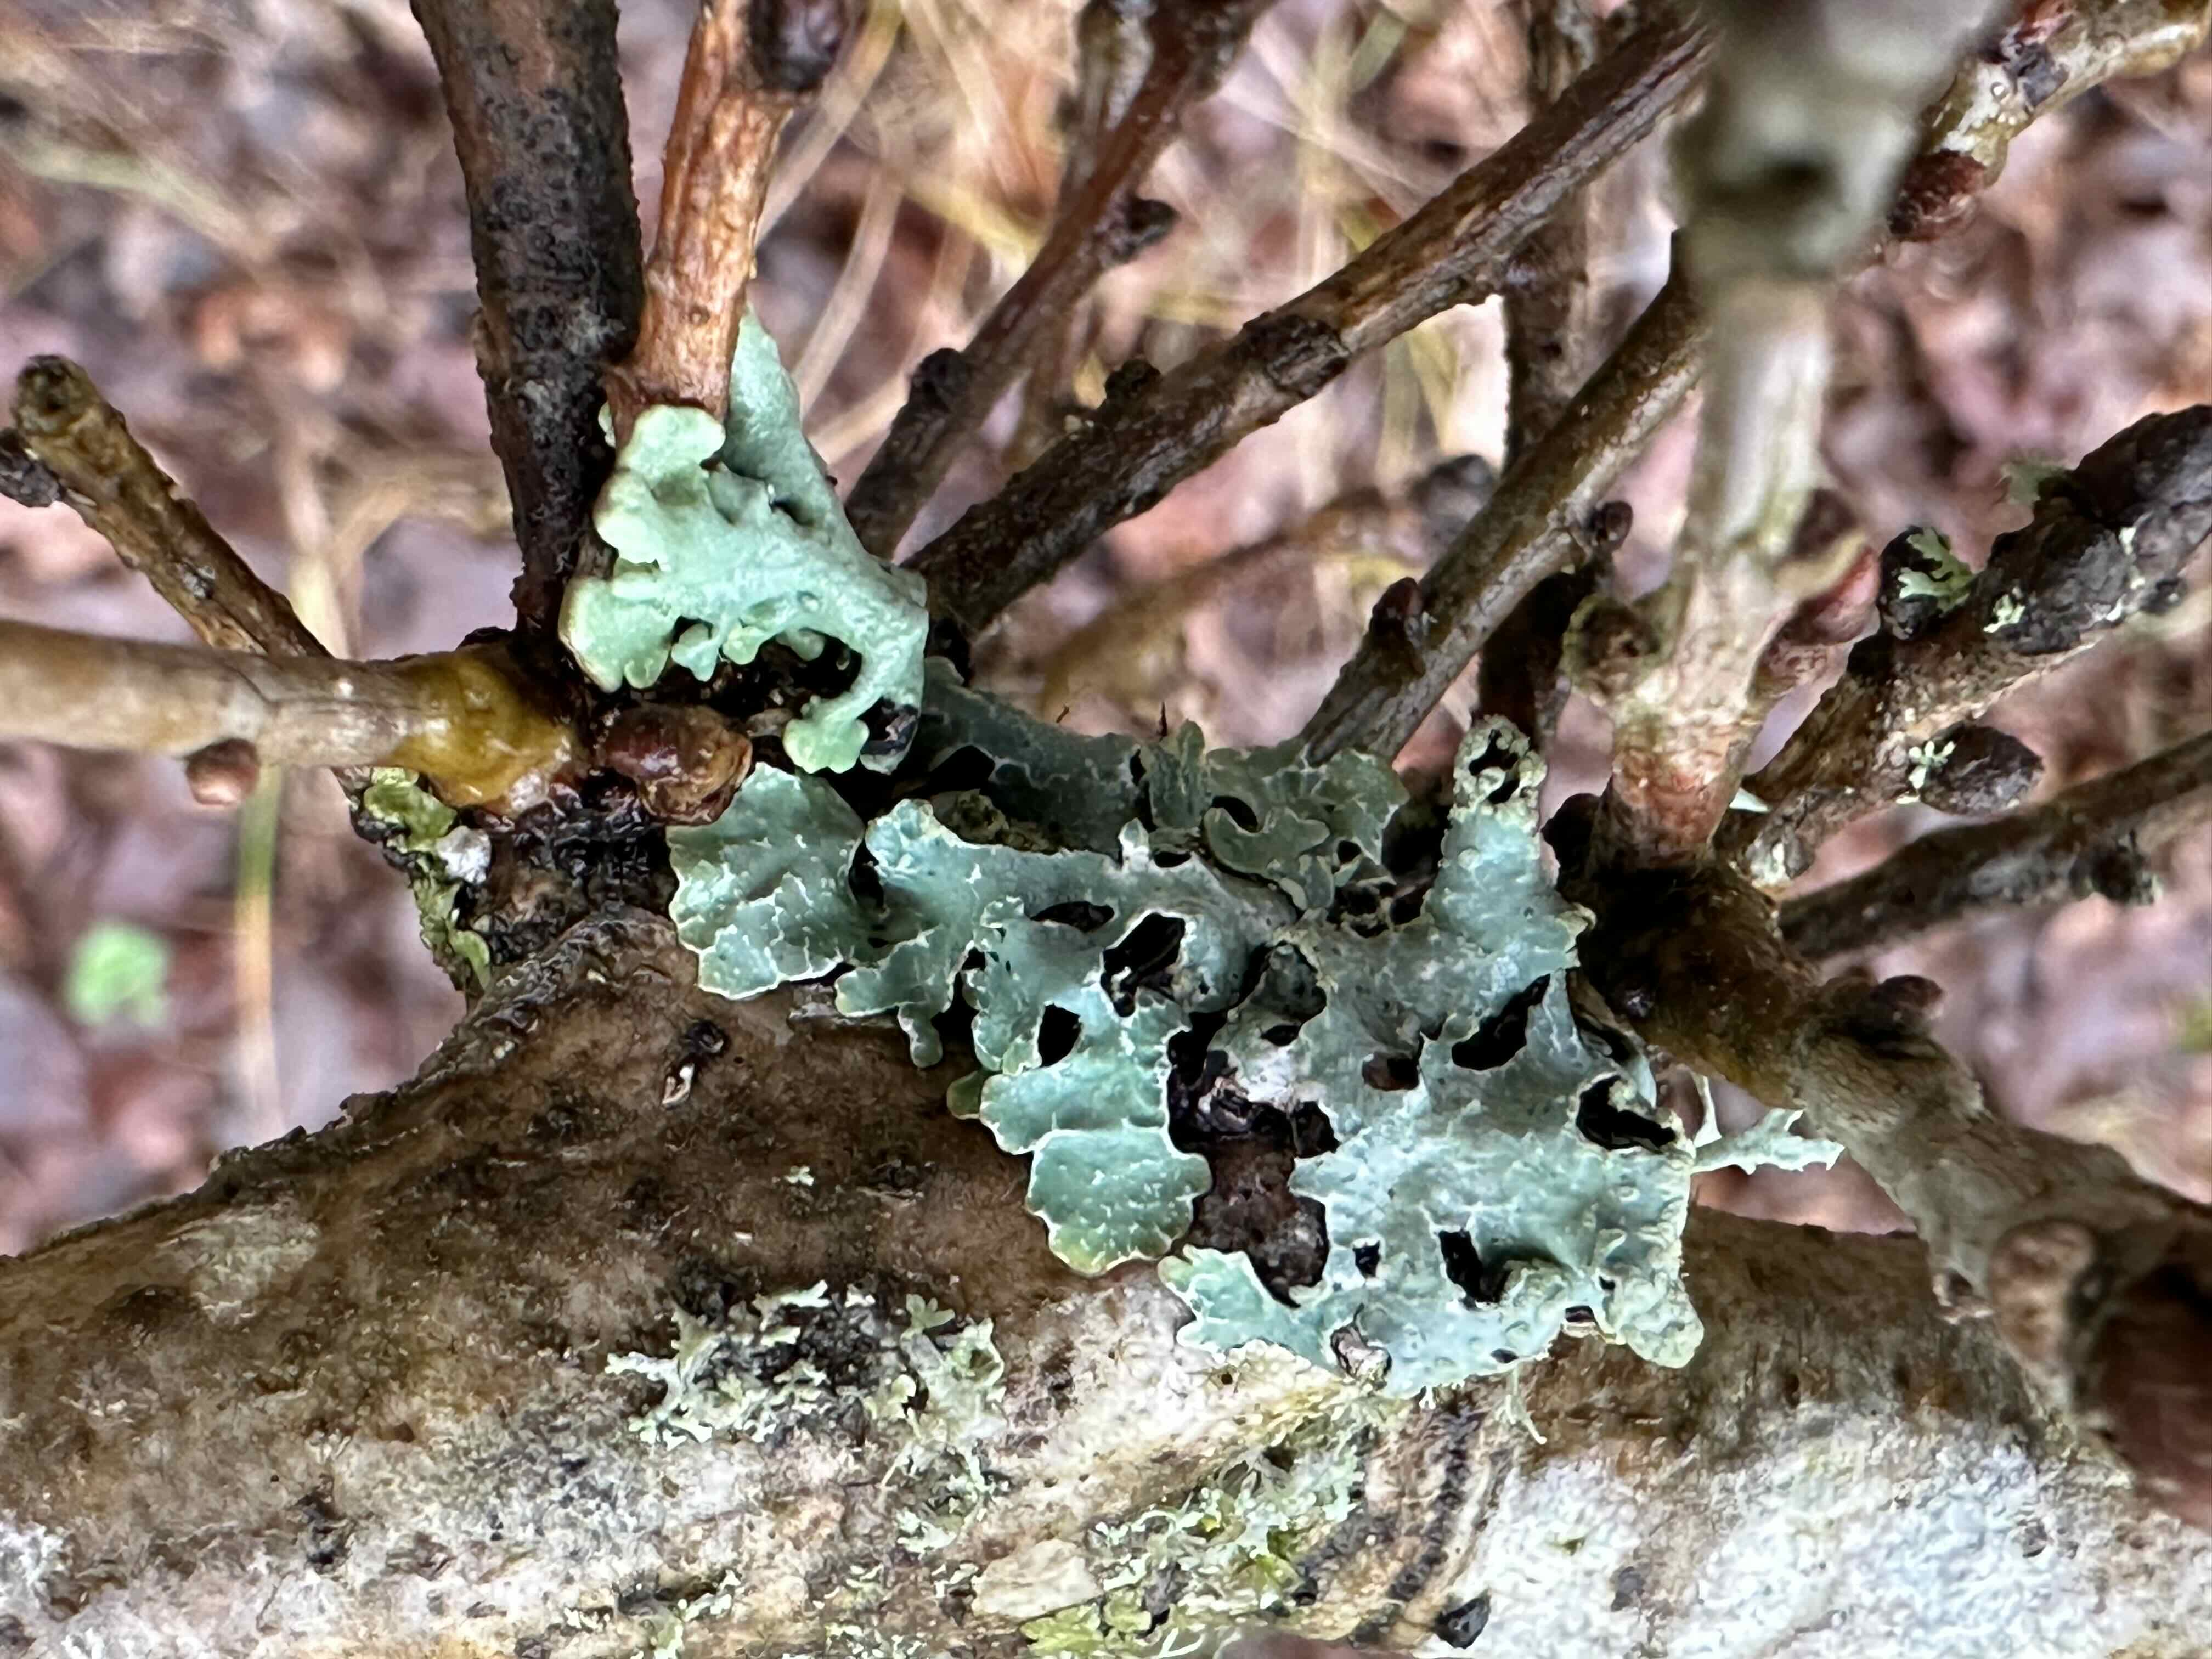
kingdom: Fungi
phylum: Ascomycota
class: Lecanoromycetes
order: Lecanorales
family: Parmeliaceae
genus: Parmelia
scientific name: Parmelia sulcata
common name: rynket skållav
